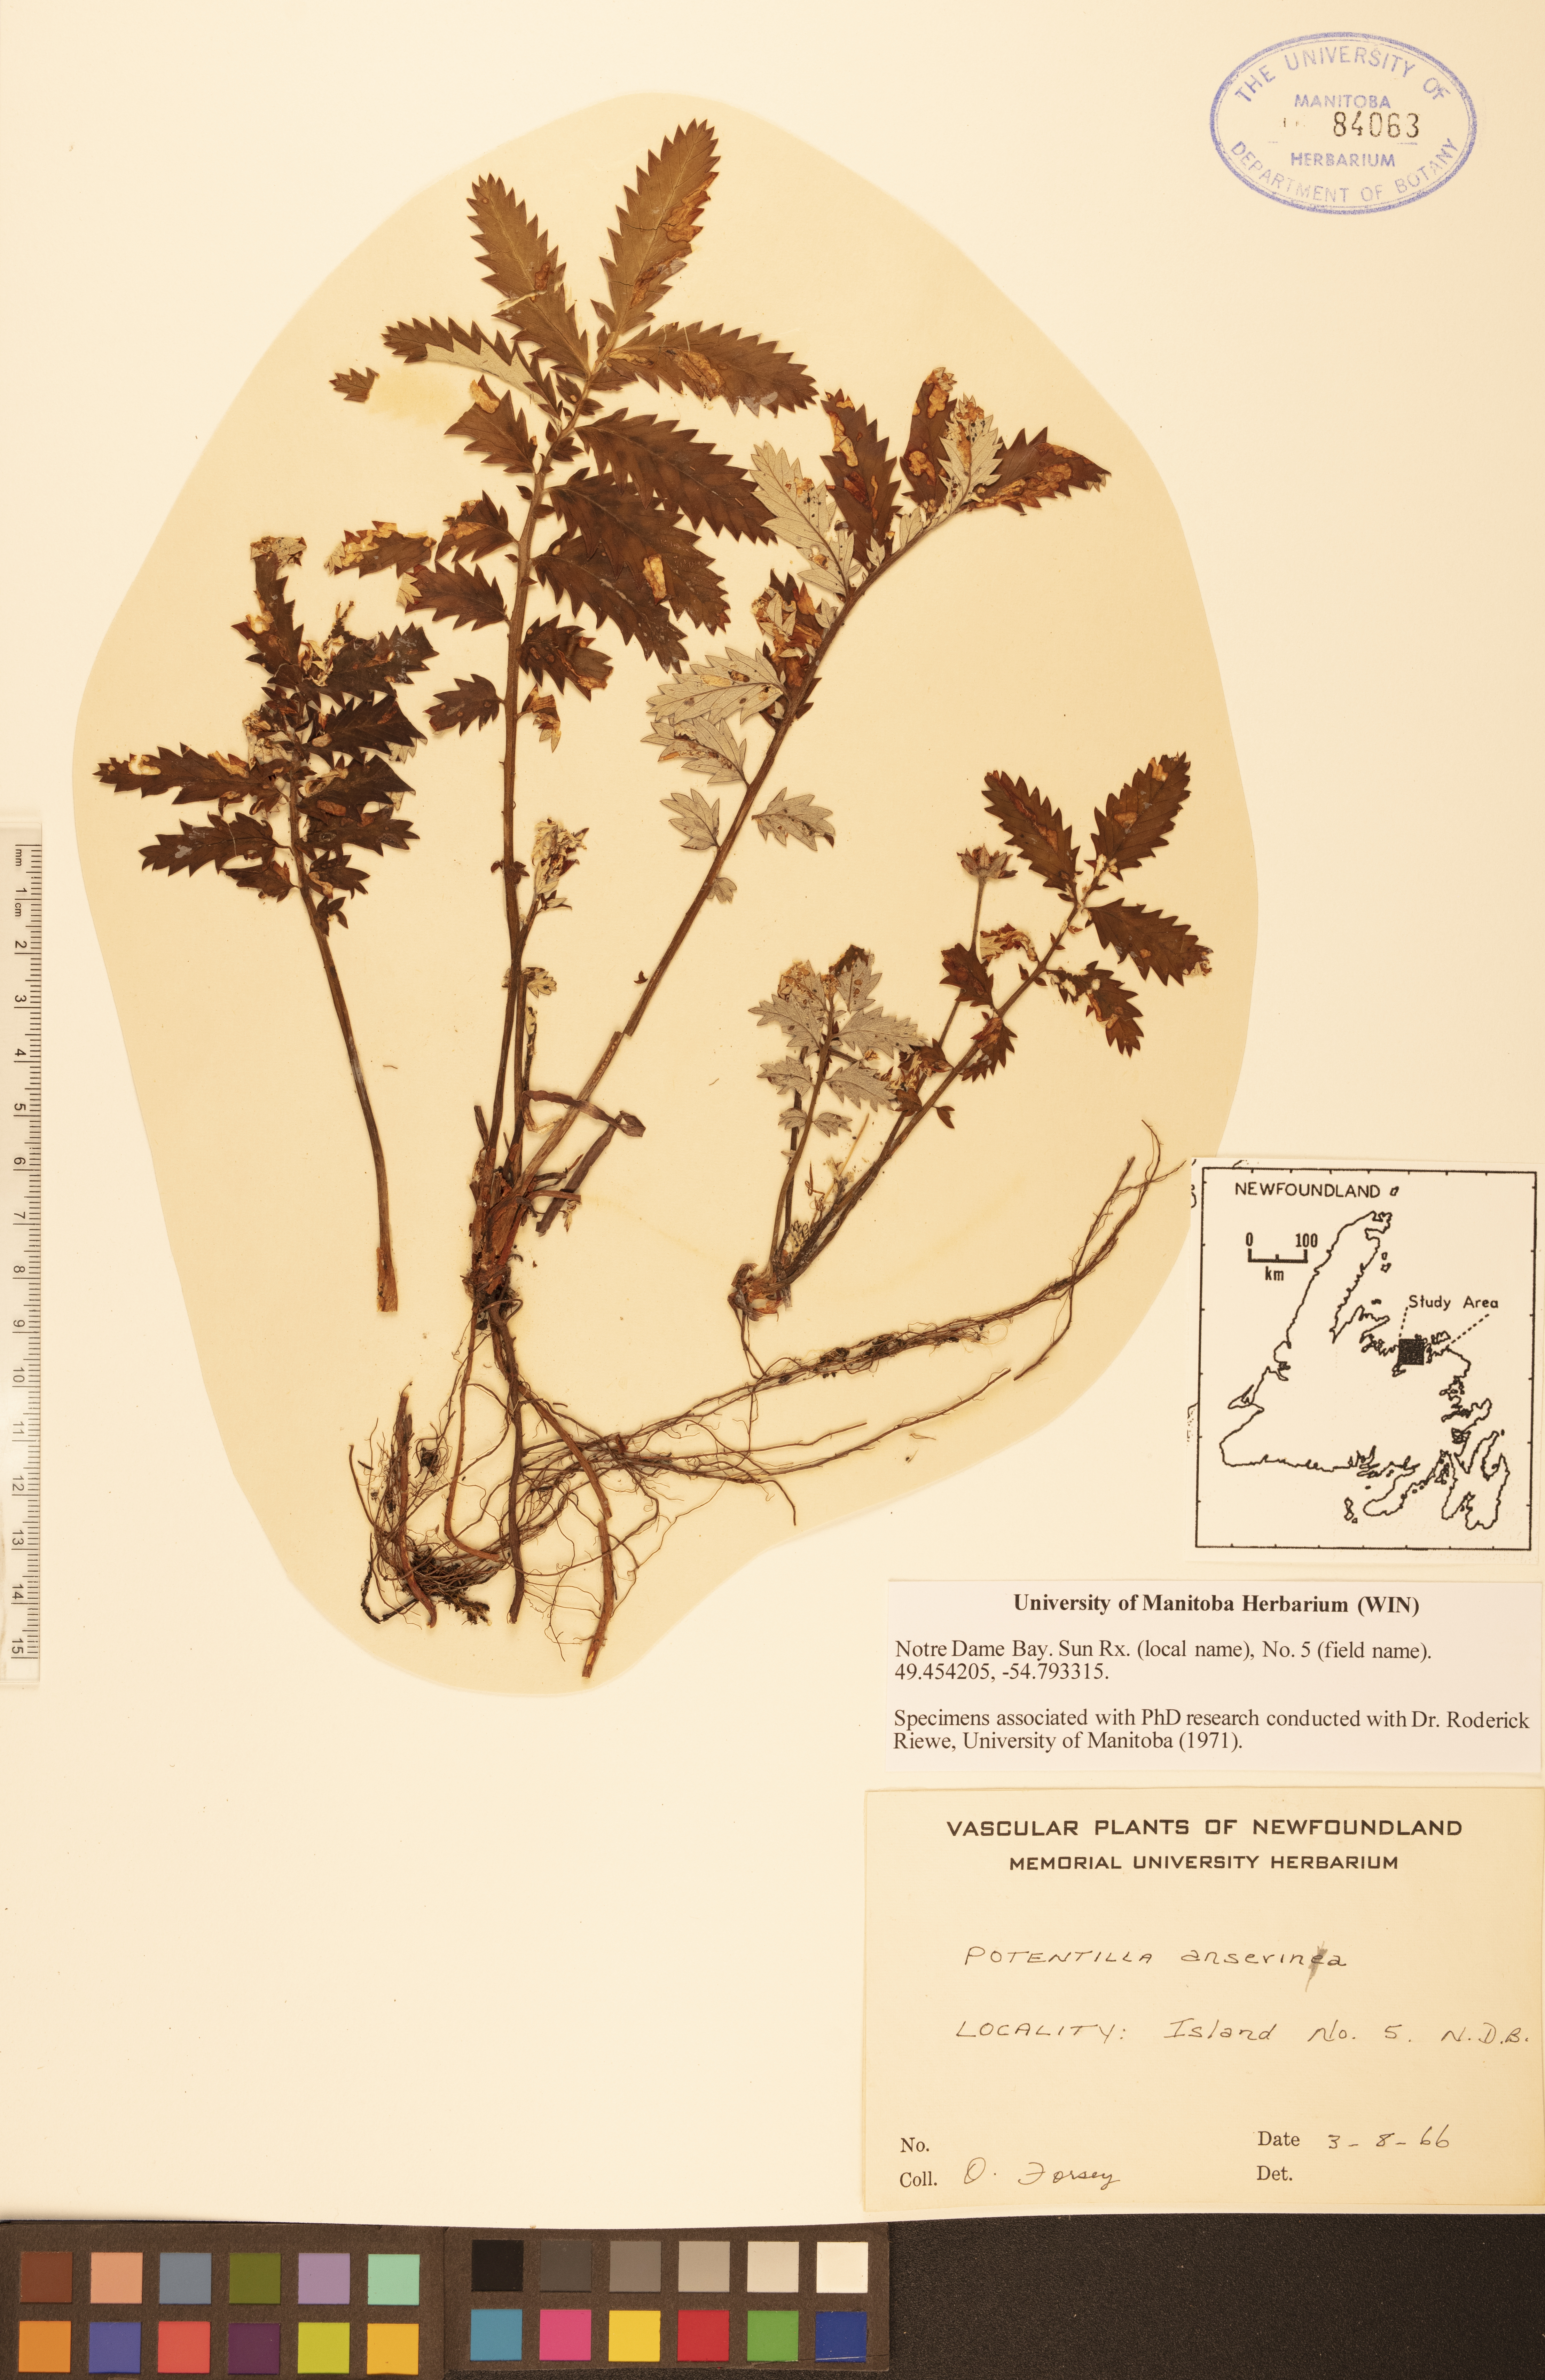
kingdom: Plantae
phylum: Tracheophyta
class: Magnoliopsida
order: Rosales
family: Rosaceae
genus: Argentina
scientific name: Argentina anserina
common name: Common silverweed
